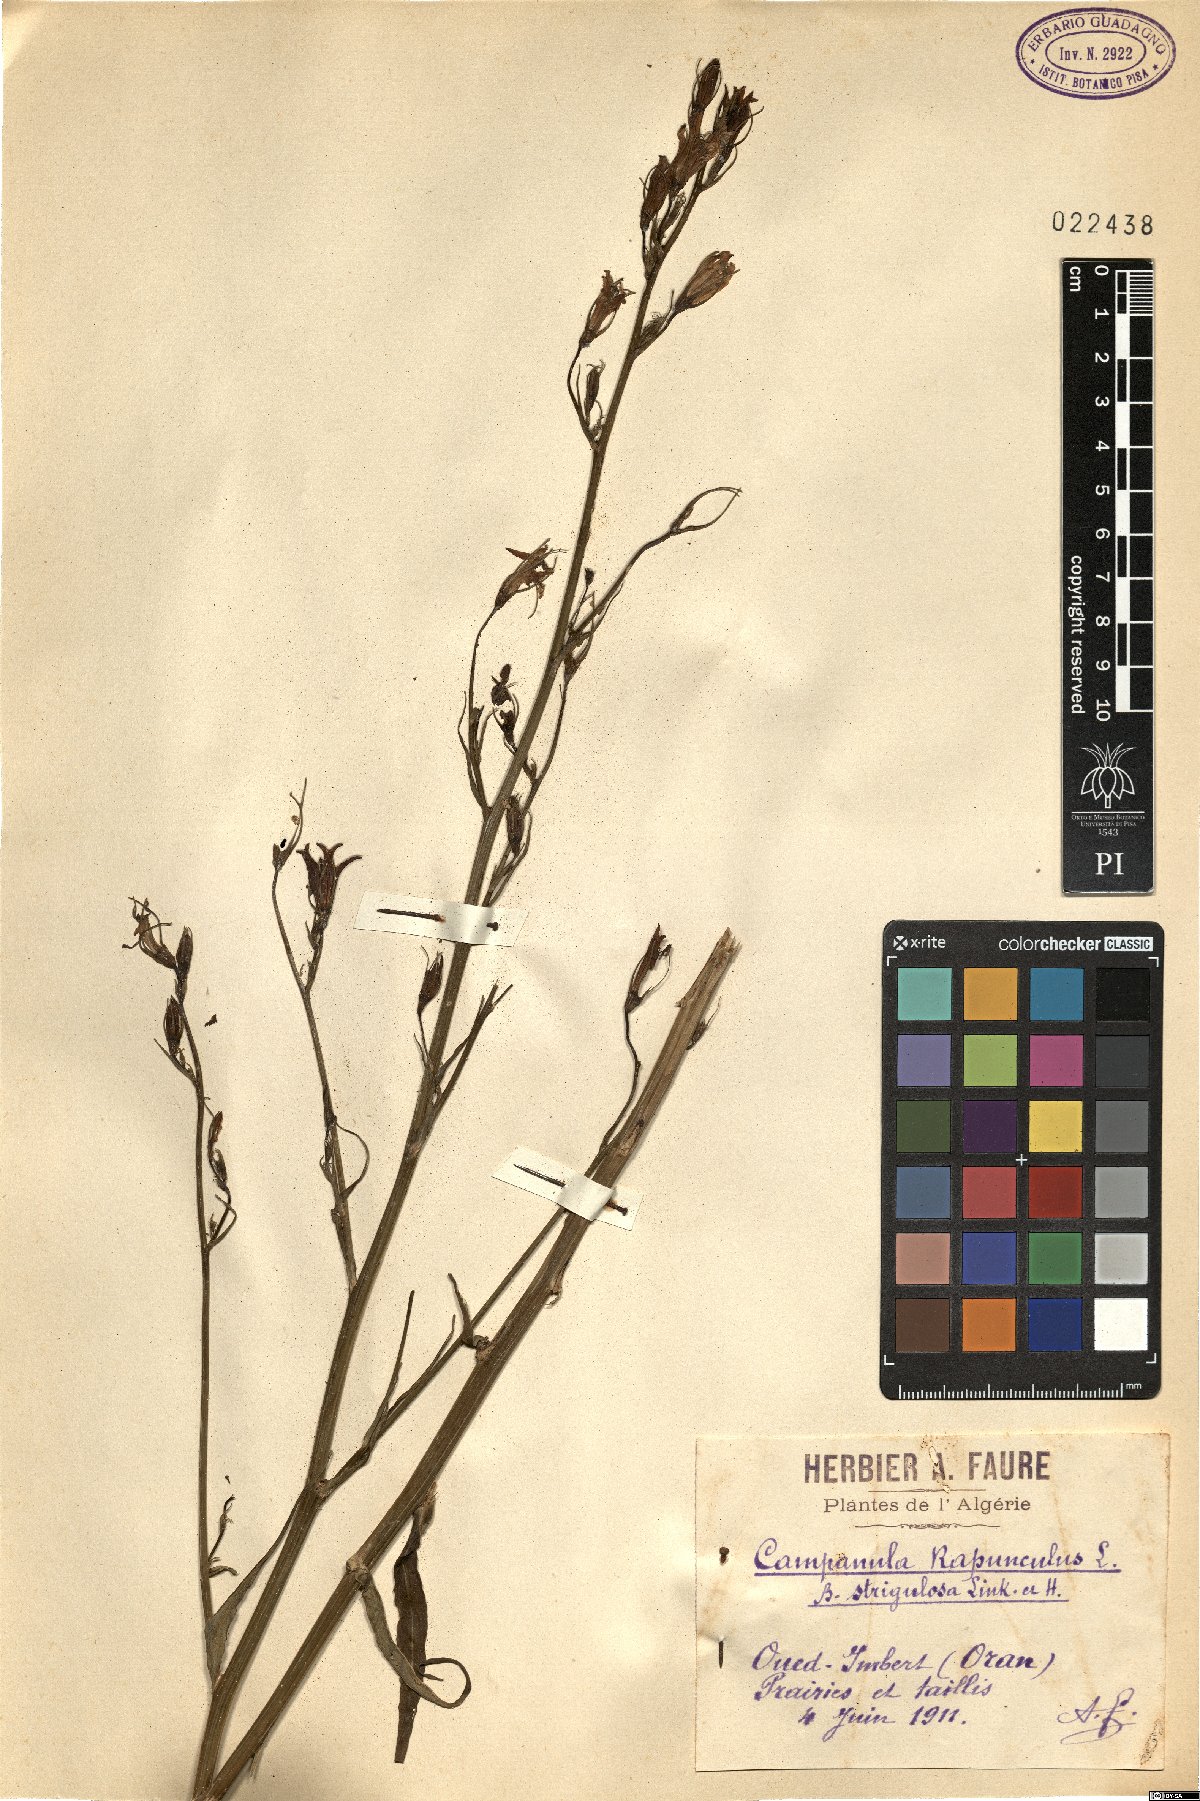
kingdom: Plantae
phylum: Tracheophyta
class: Magnoliopsida
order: Asterales
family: Campanulaceae
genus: Campanula
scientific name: Campanula rapunculus
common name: Rampion bellflower
